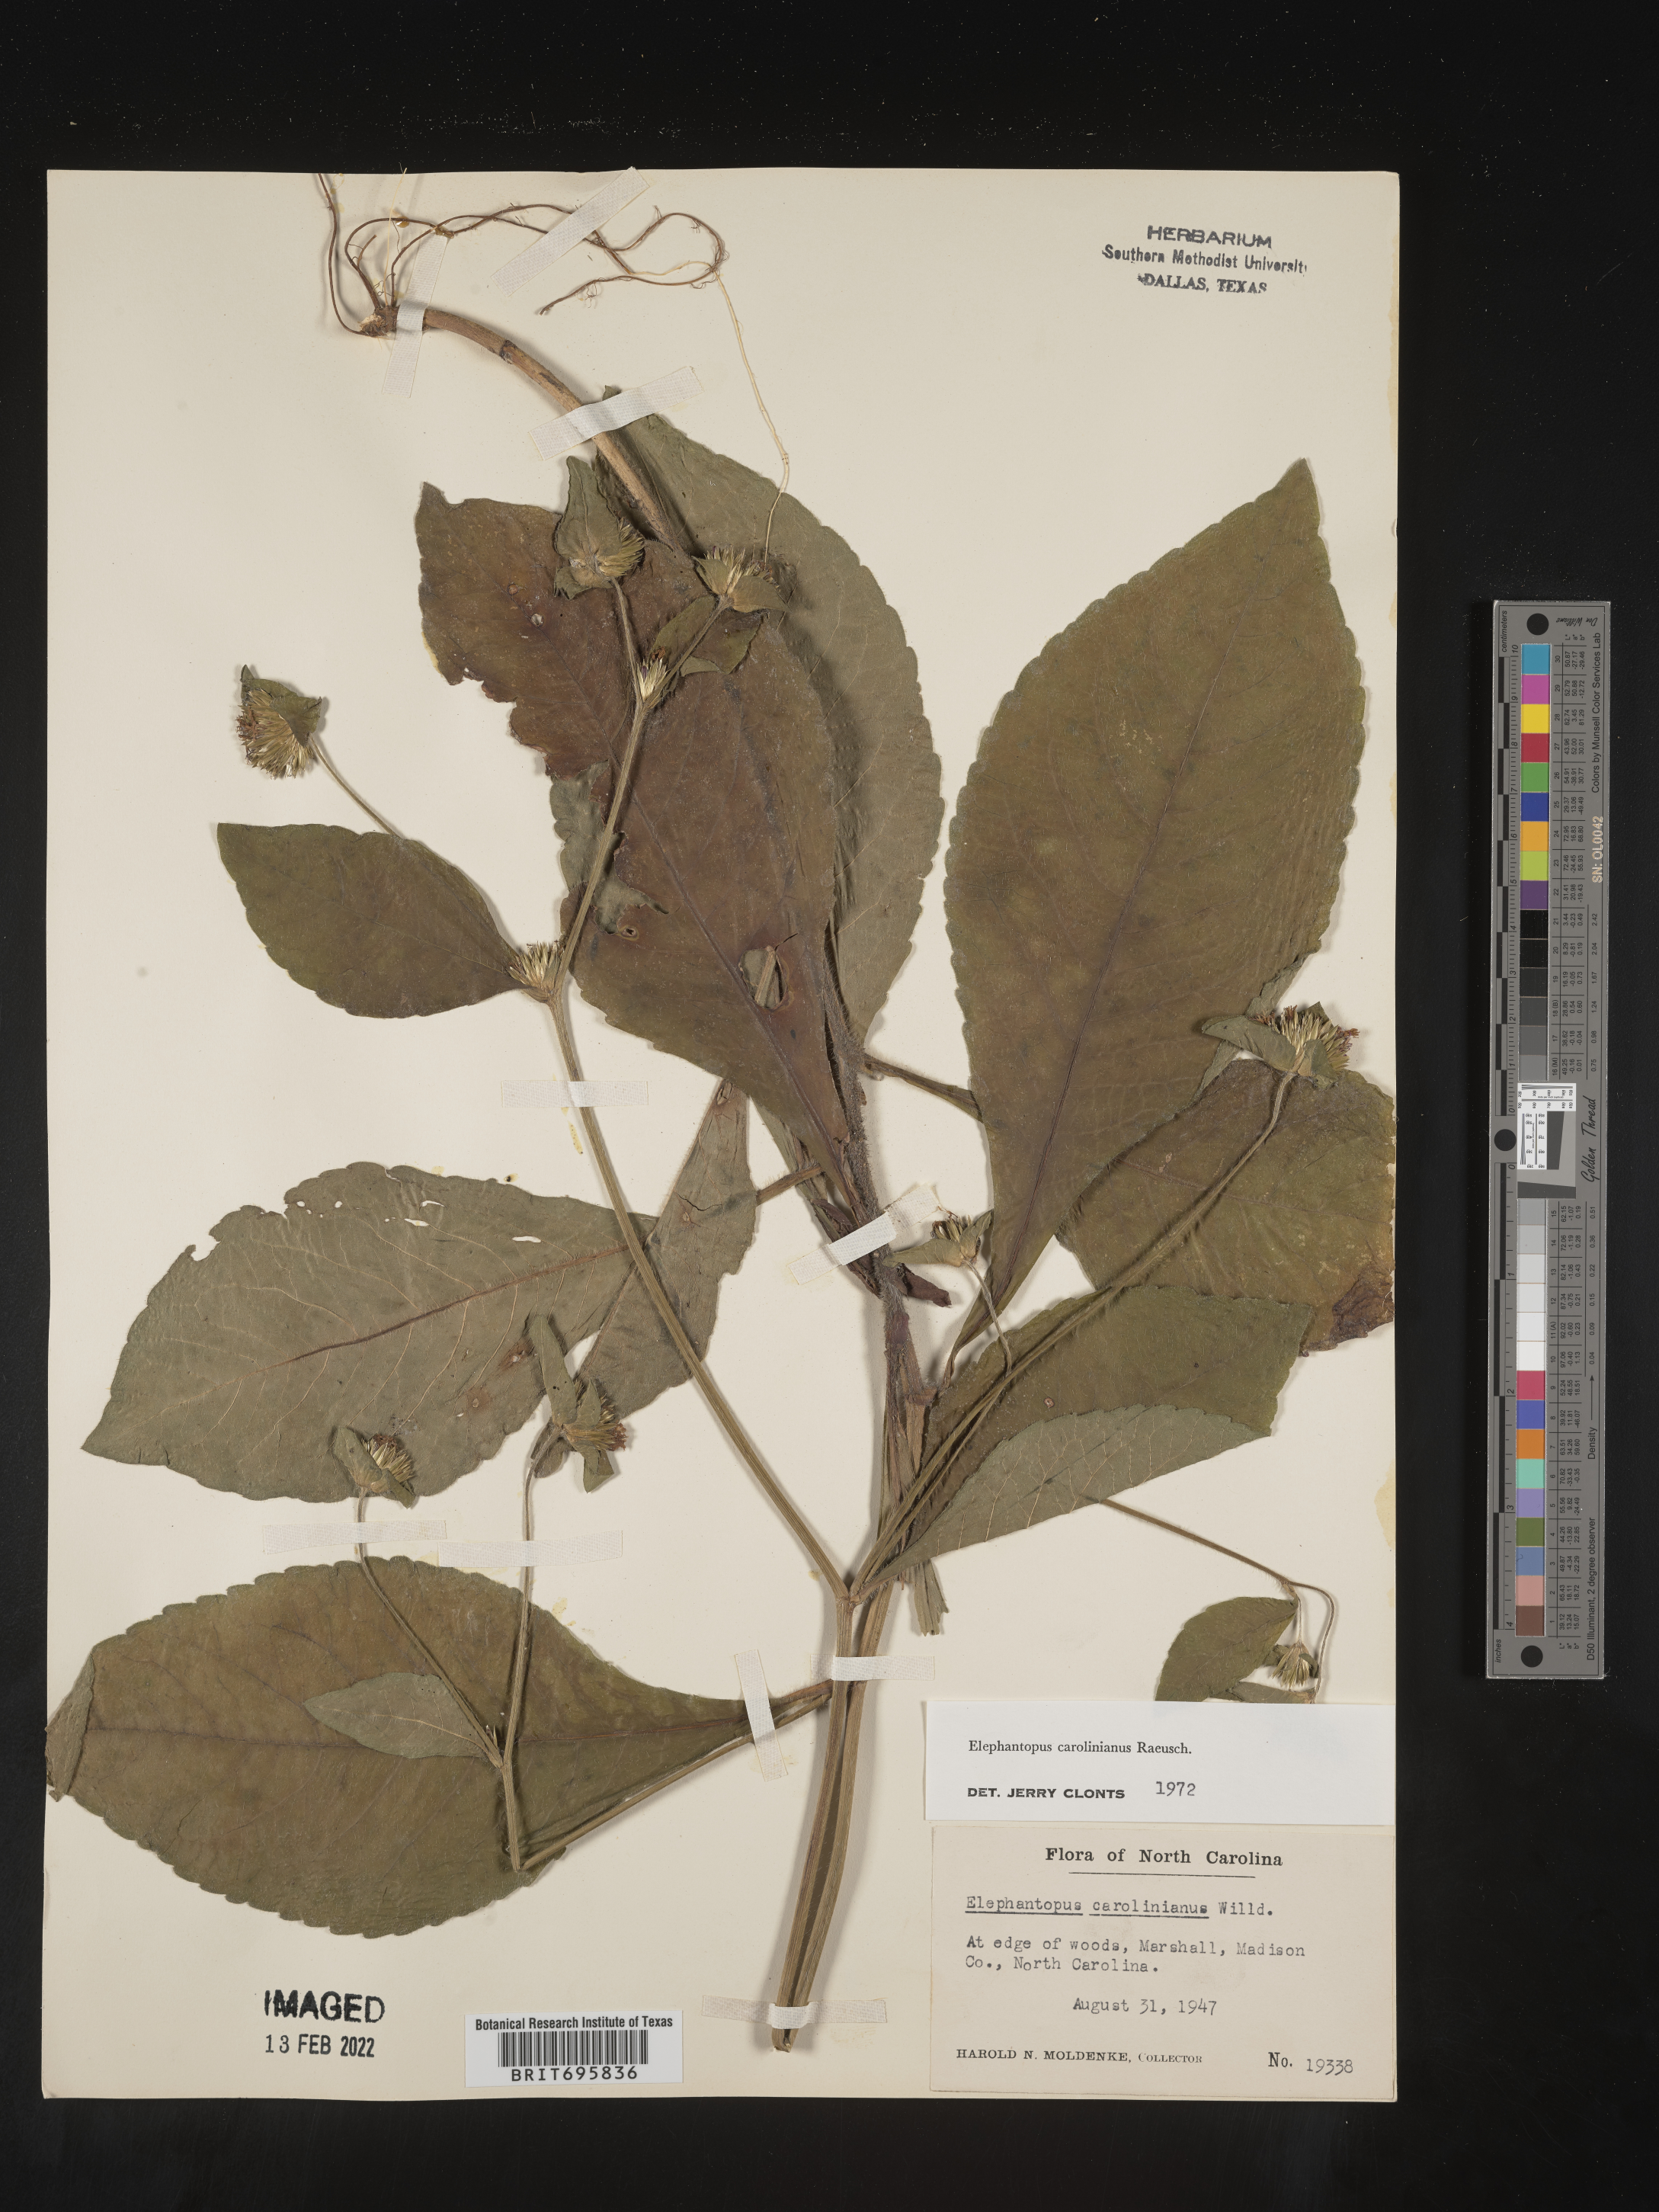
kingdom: Plantae
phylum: Tracheophyta
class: Magnoliopsida
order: Asterales
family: Asteraceae
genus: Elephantopus
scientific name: Elephantopus carolinianus
